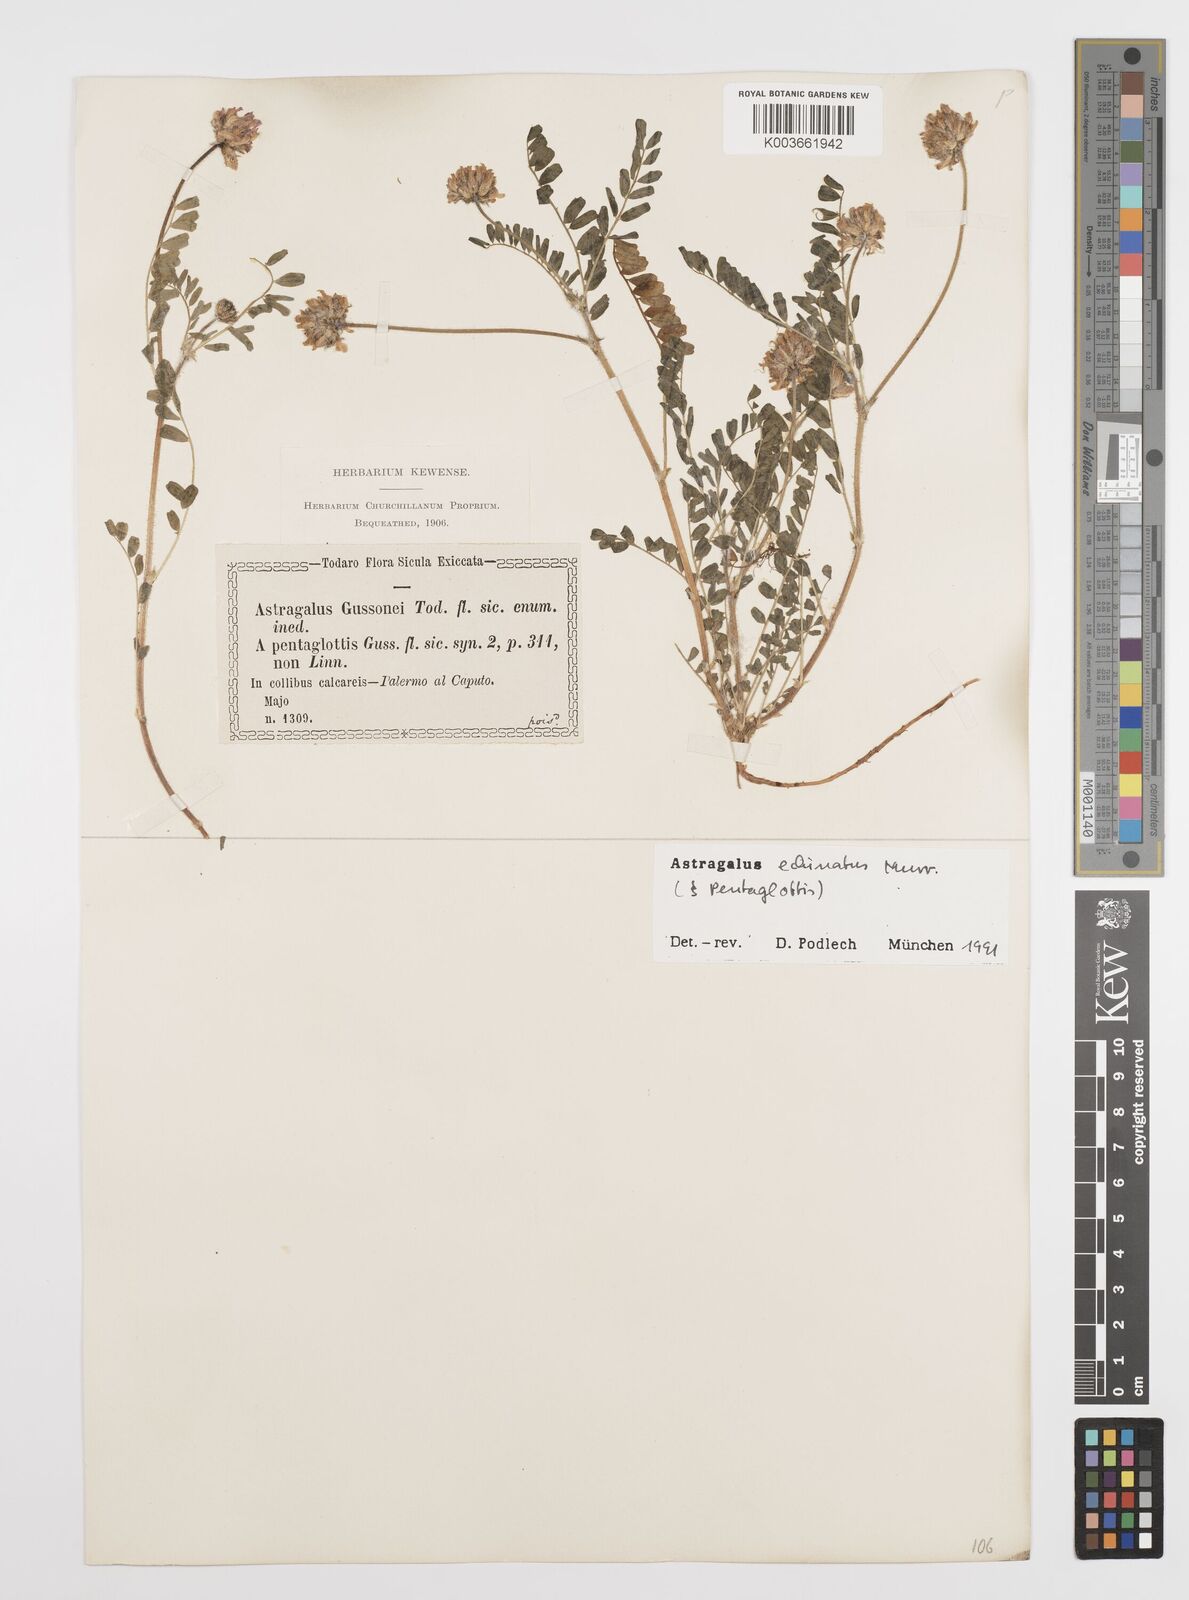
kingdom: Plantae
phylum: Tracheophyta
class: Magnoliopsida
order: Fabales
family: Fabaceae
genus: Astragalus
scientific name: Astragalus echinatus
